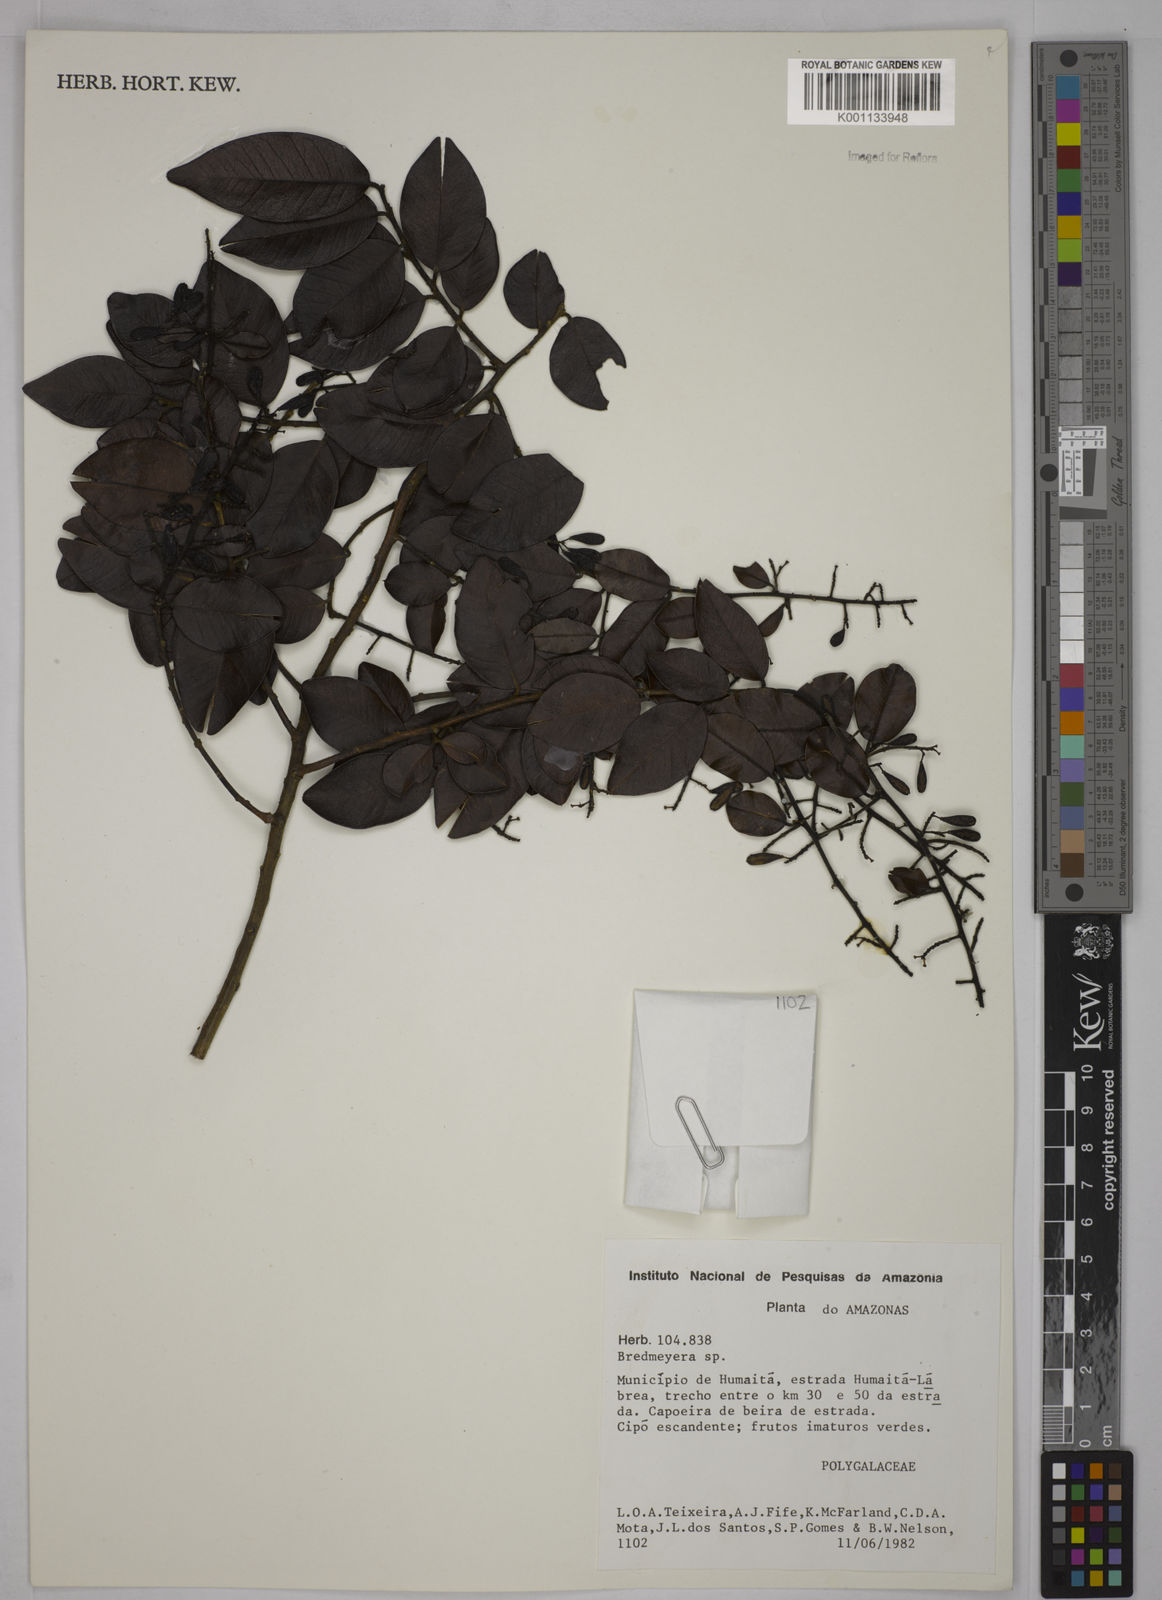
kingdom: Plantae
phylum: Tracheophyta
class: Magnoliopsida
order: Fabales
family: Polygalaceae
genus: Bredemeyera
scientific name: Bredemeyera
